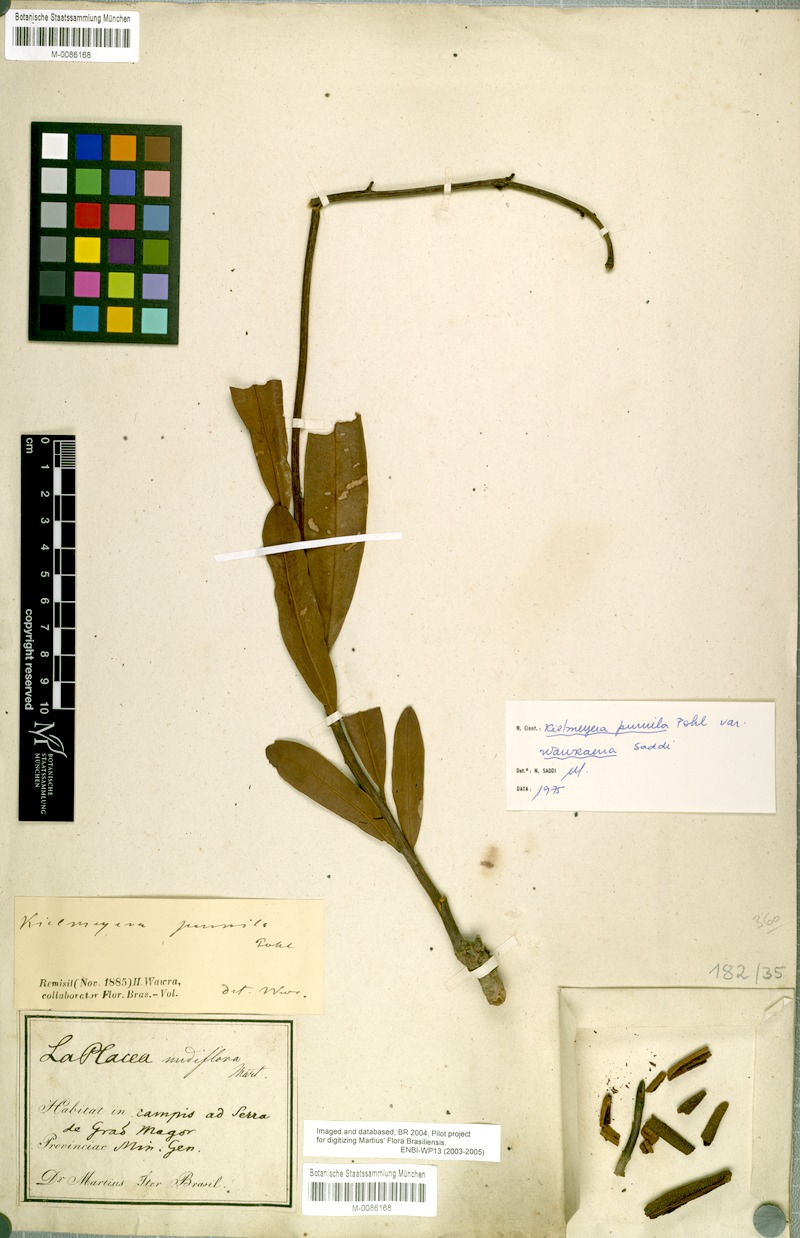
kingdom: Plantae
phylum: Tracheophyta
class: Magnoliopsida
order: Malpighiales
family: Calophyllaceae
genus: Kielmeyera
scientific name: Kielmeyera pumila
